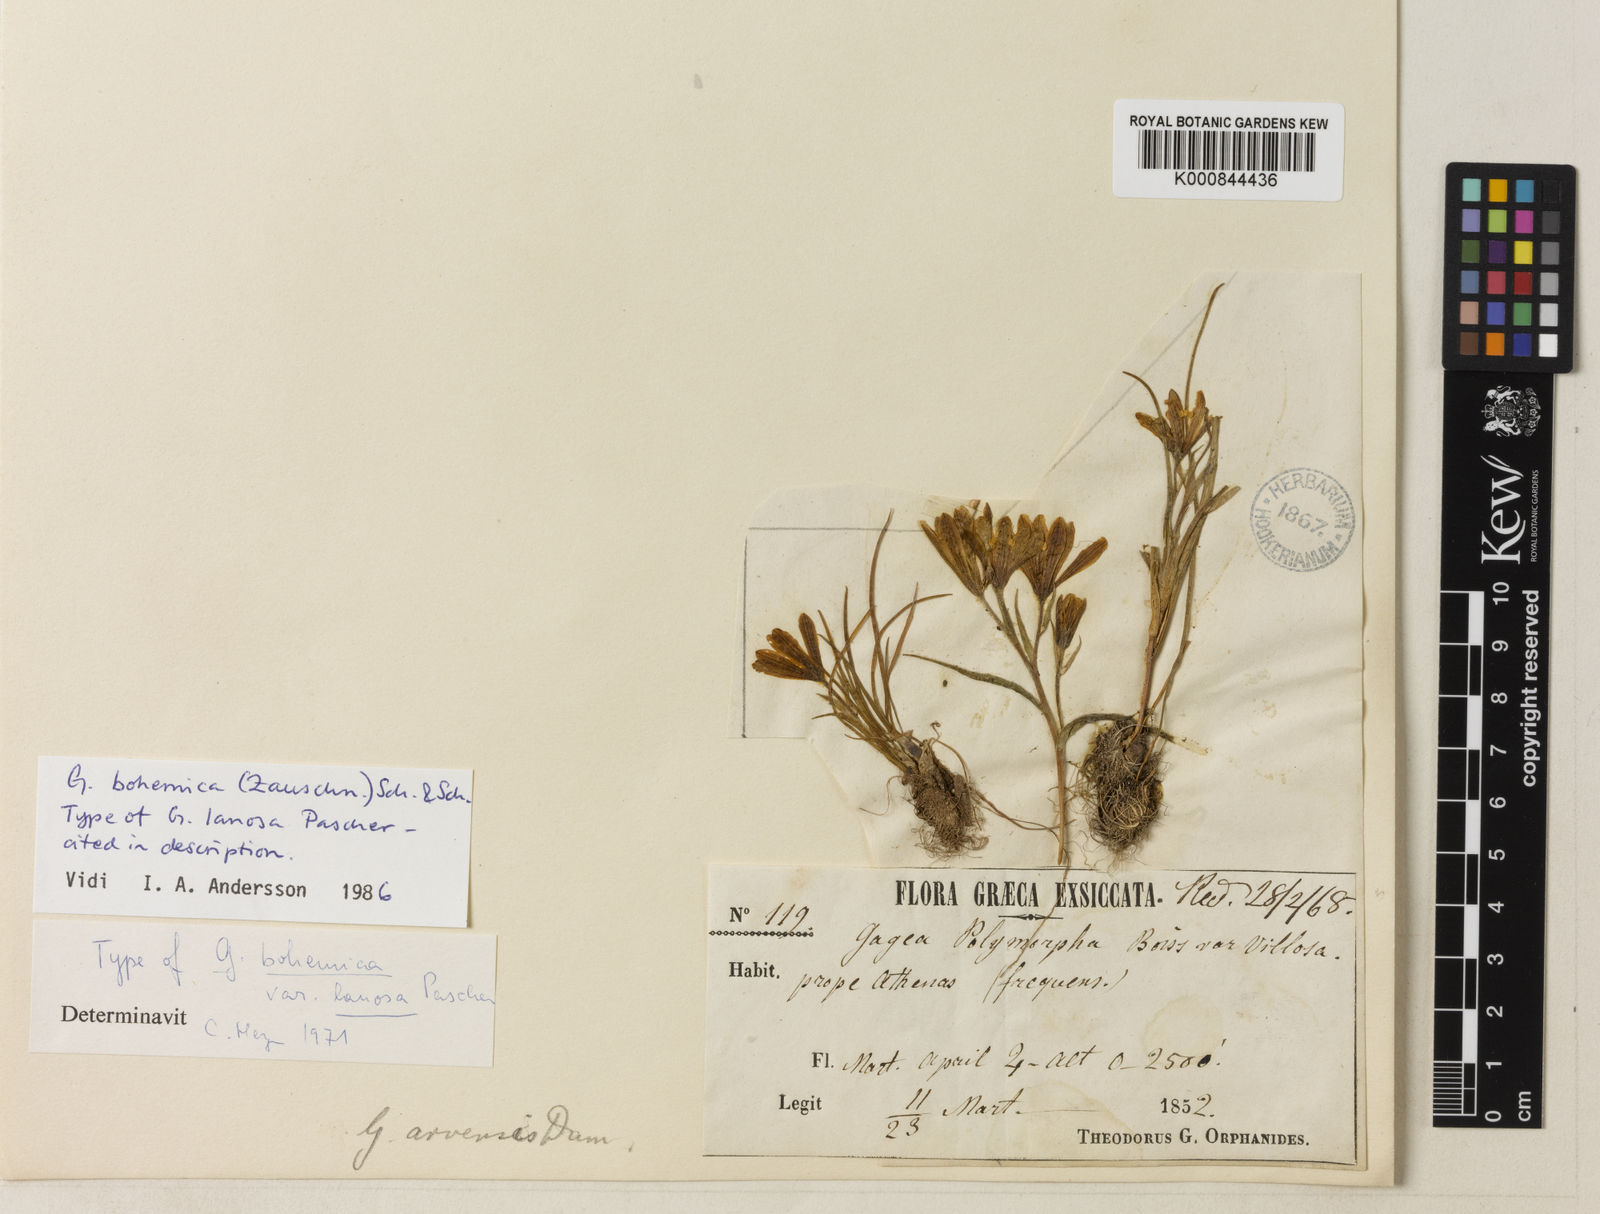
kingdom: Plantae
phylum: Tracheophyta
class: Liliopsida
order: Liliales
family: Liliaceae
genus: Gagea
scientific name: Gagea bohemica
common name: Early star-of-bethlehem
